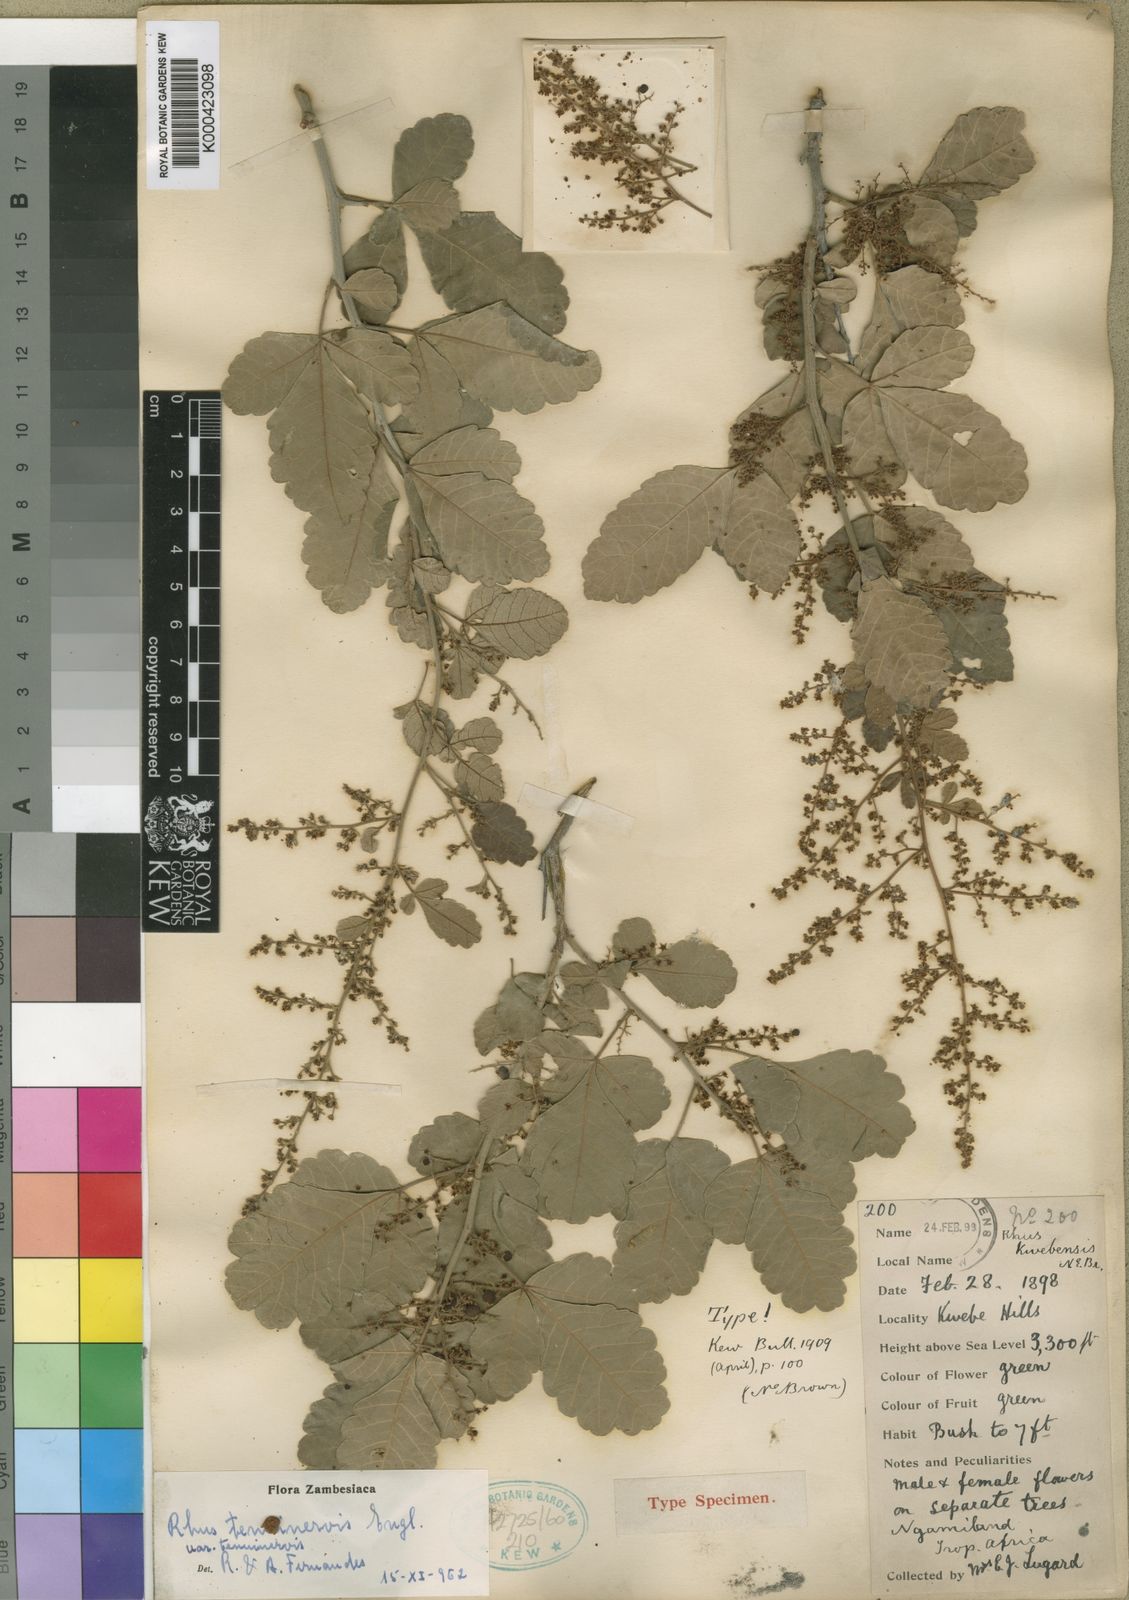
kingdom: Plantae
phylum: Tracheophyta
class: Magnoliopsida
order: Sapindales
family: Anacardiaceae
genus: Searsia
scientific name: Searsia tenuinervis
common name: Hyaena taaibos
